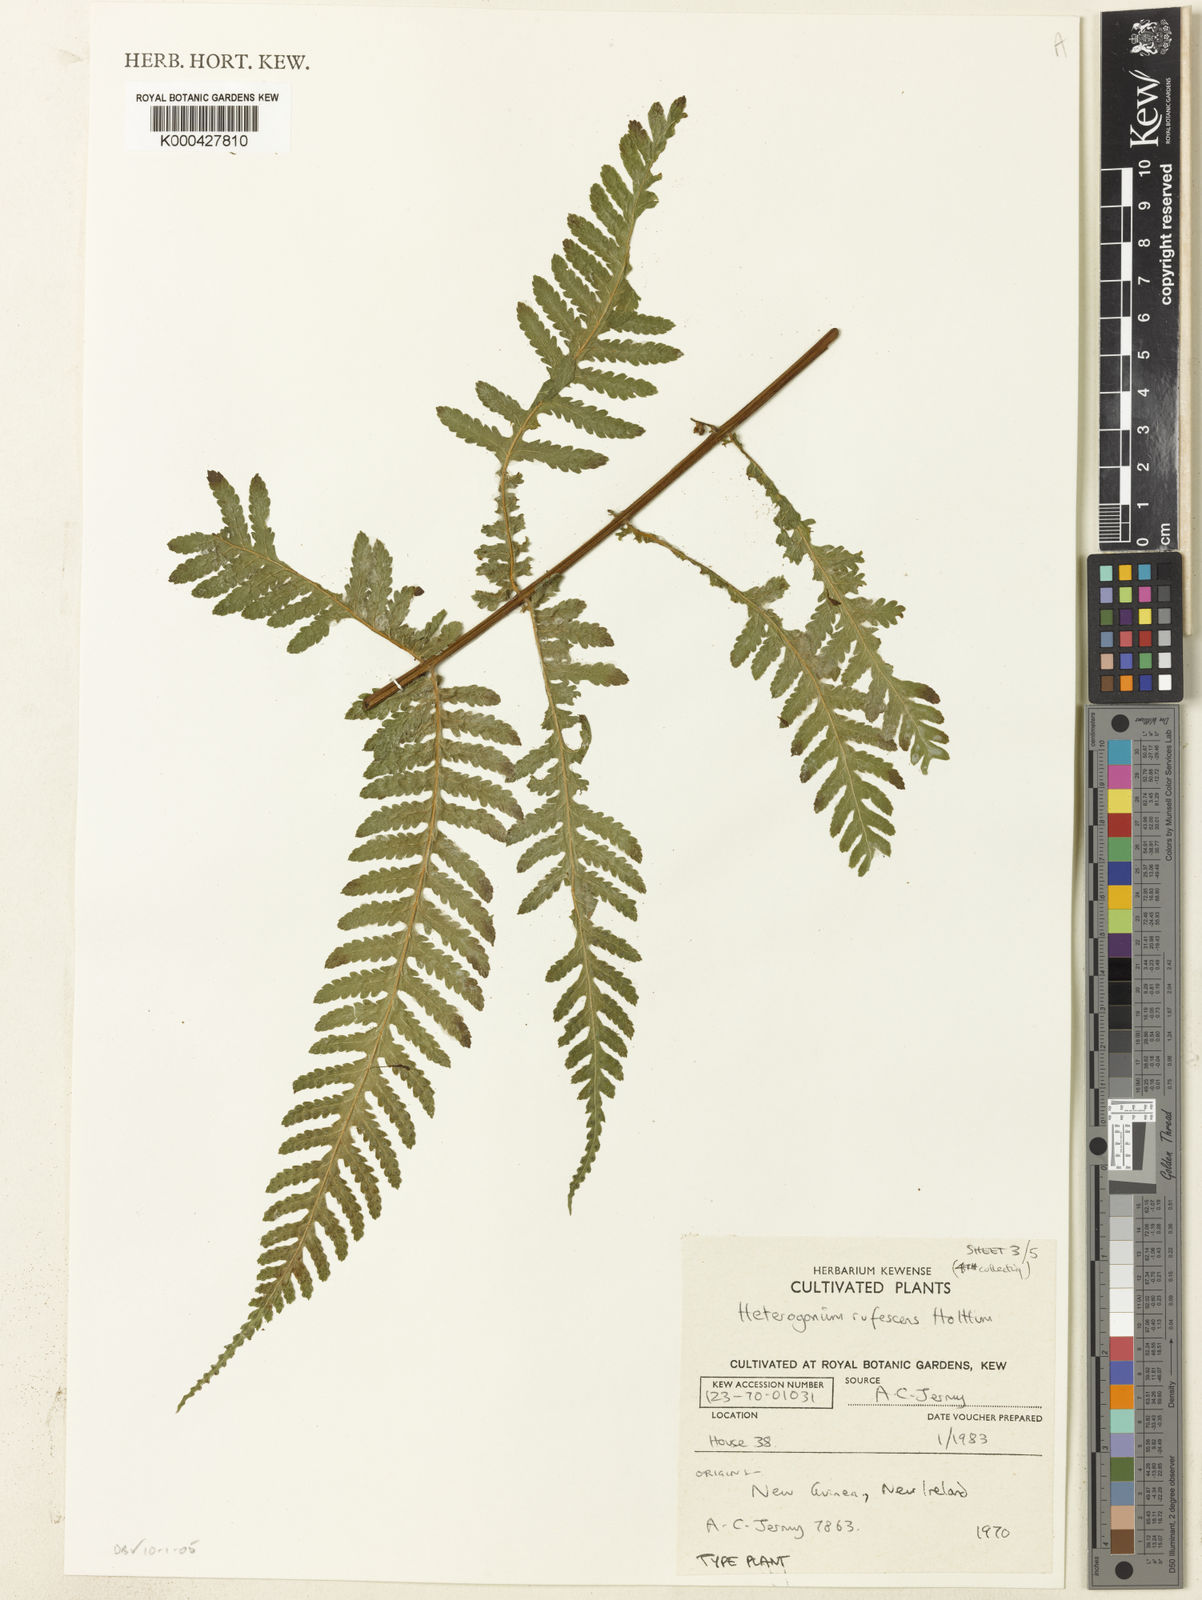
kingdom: Plantae
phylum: Tracheophyta
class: Polypodiopsida
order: Polypodiales
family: Tectariaceae
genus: Tectaria
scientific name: Tectaria jermyi
